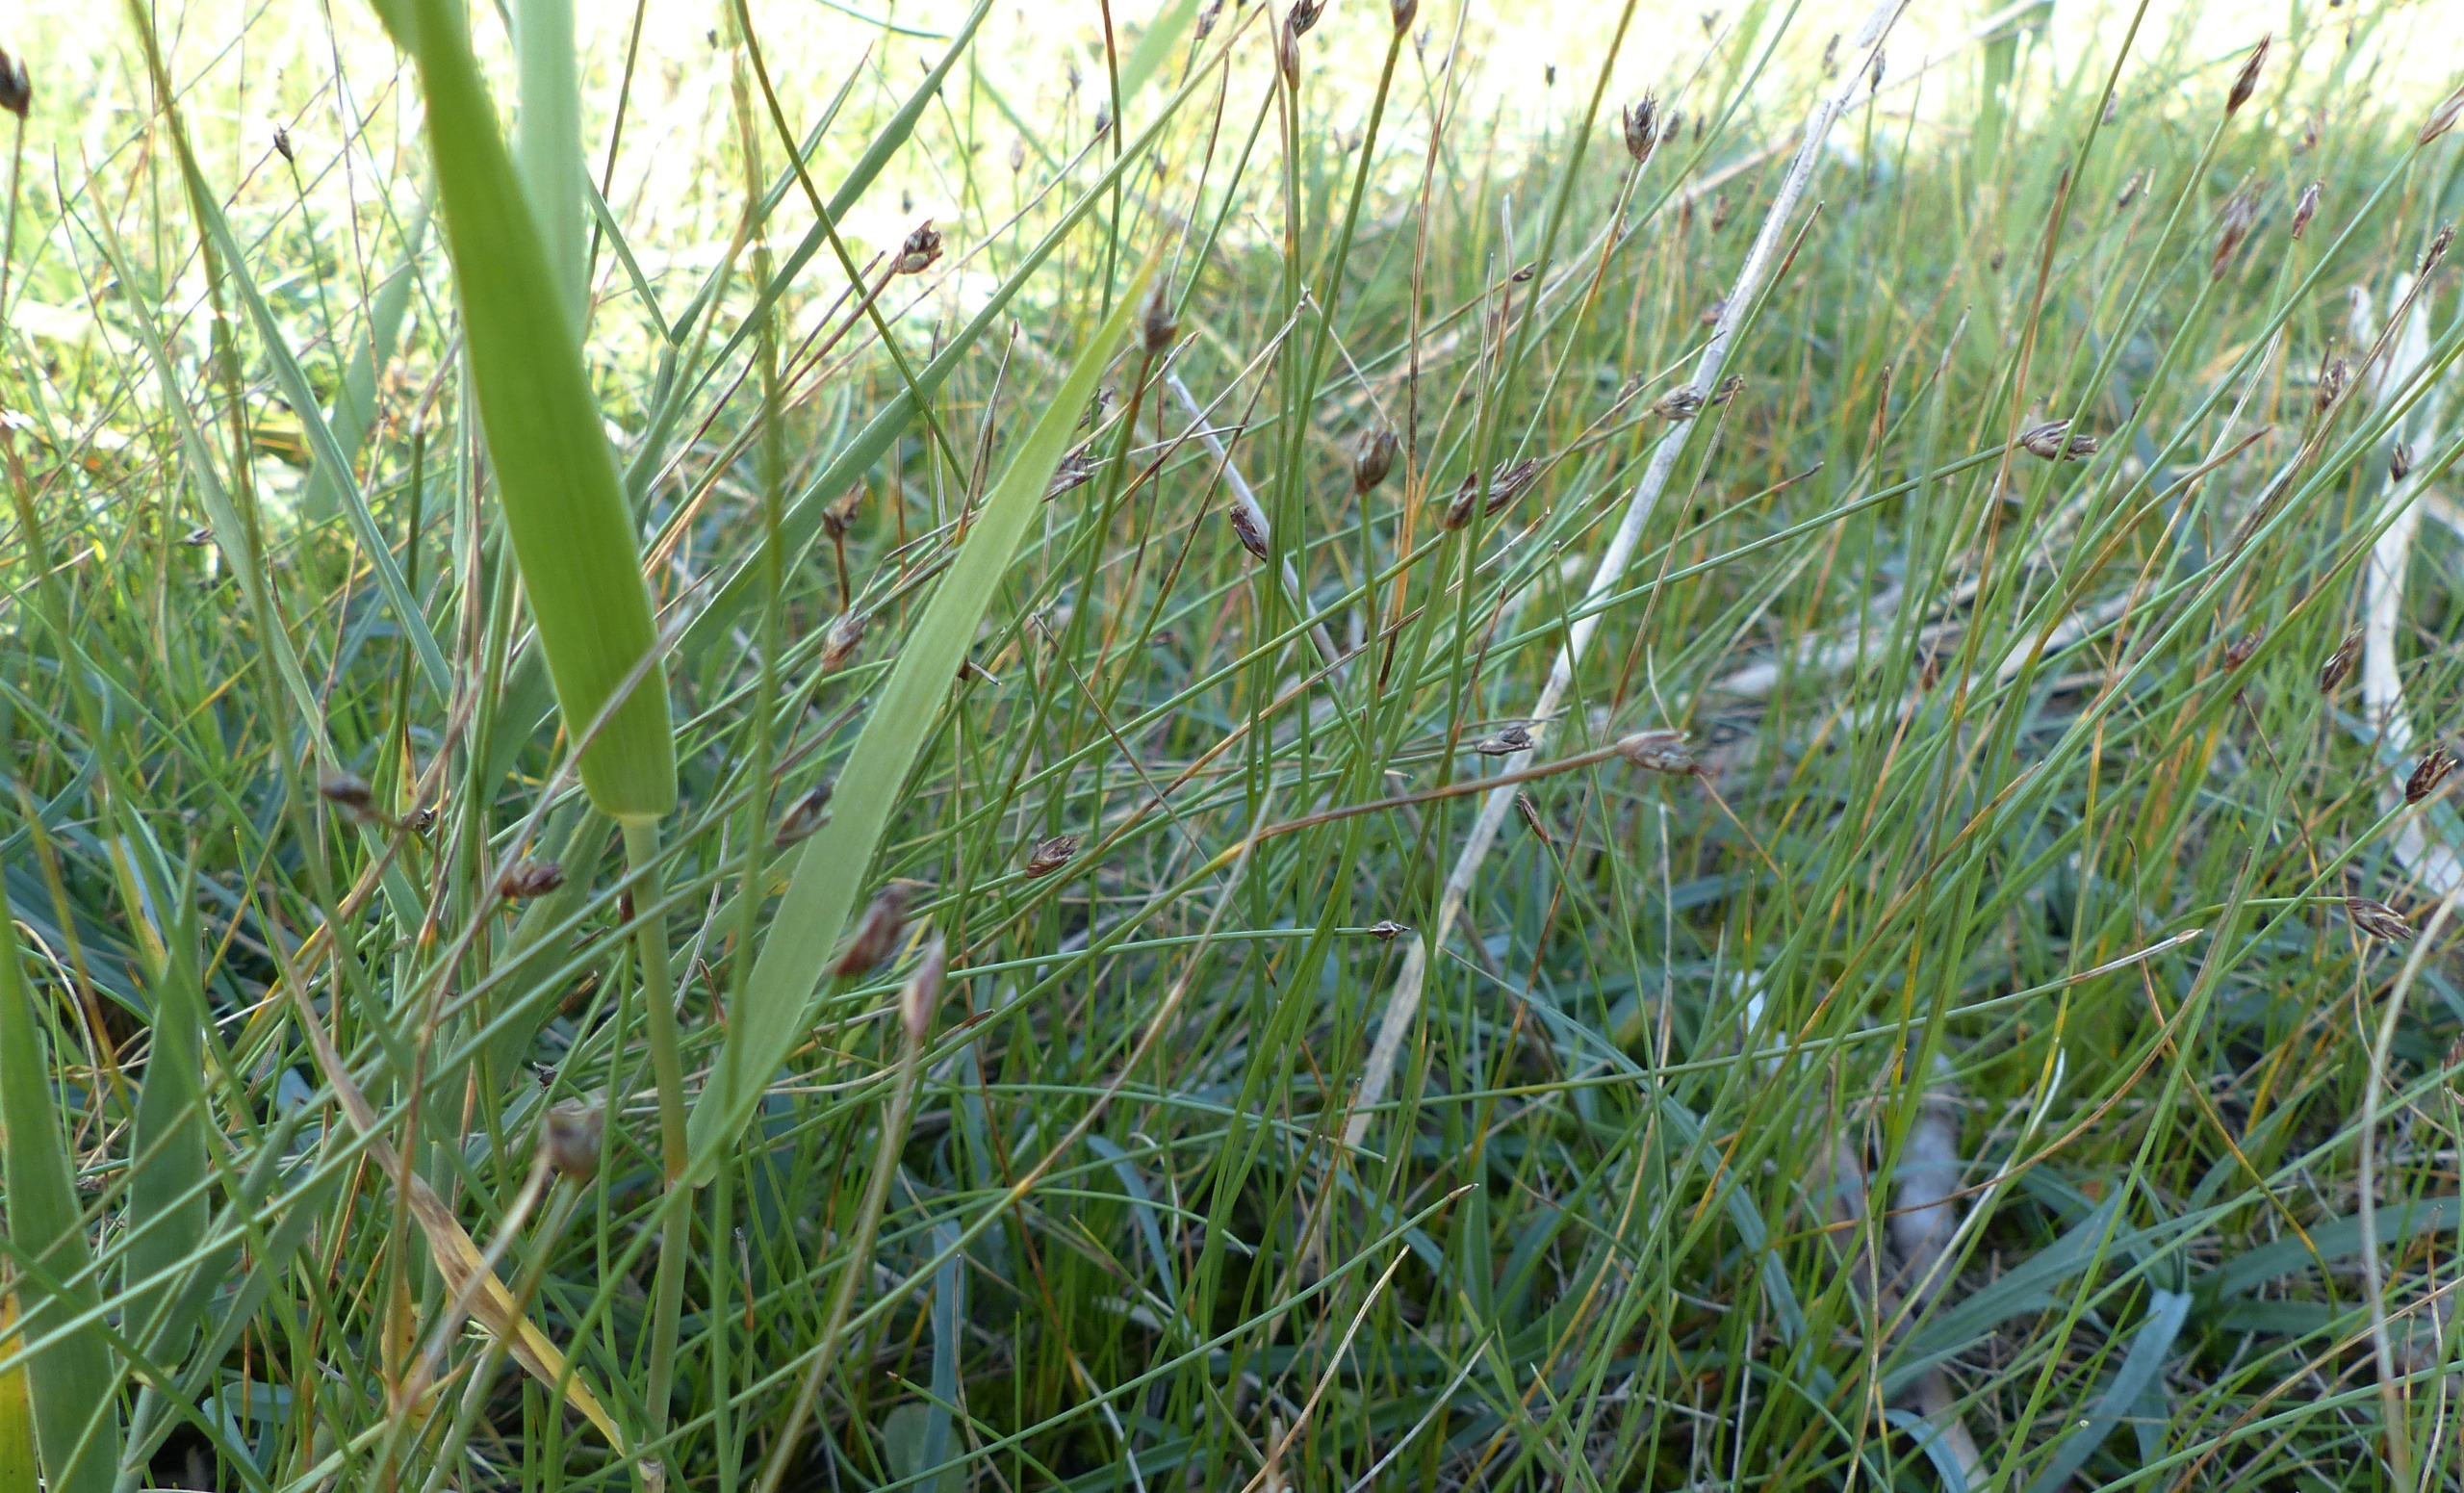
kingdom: Plantae
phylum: Tracheophyta
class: Liliopsida
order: Poales
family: Cyperaceae
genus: Eleocharis
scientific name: Eleocharis quinqueflora
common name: Fåblomstret kogleaks
